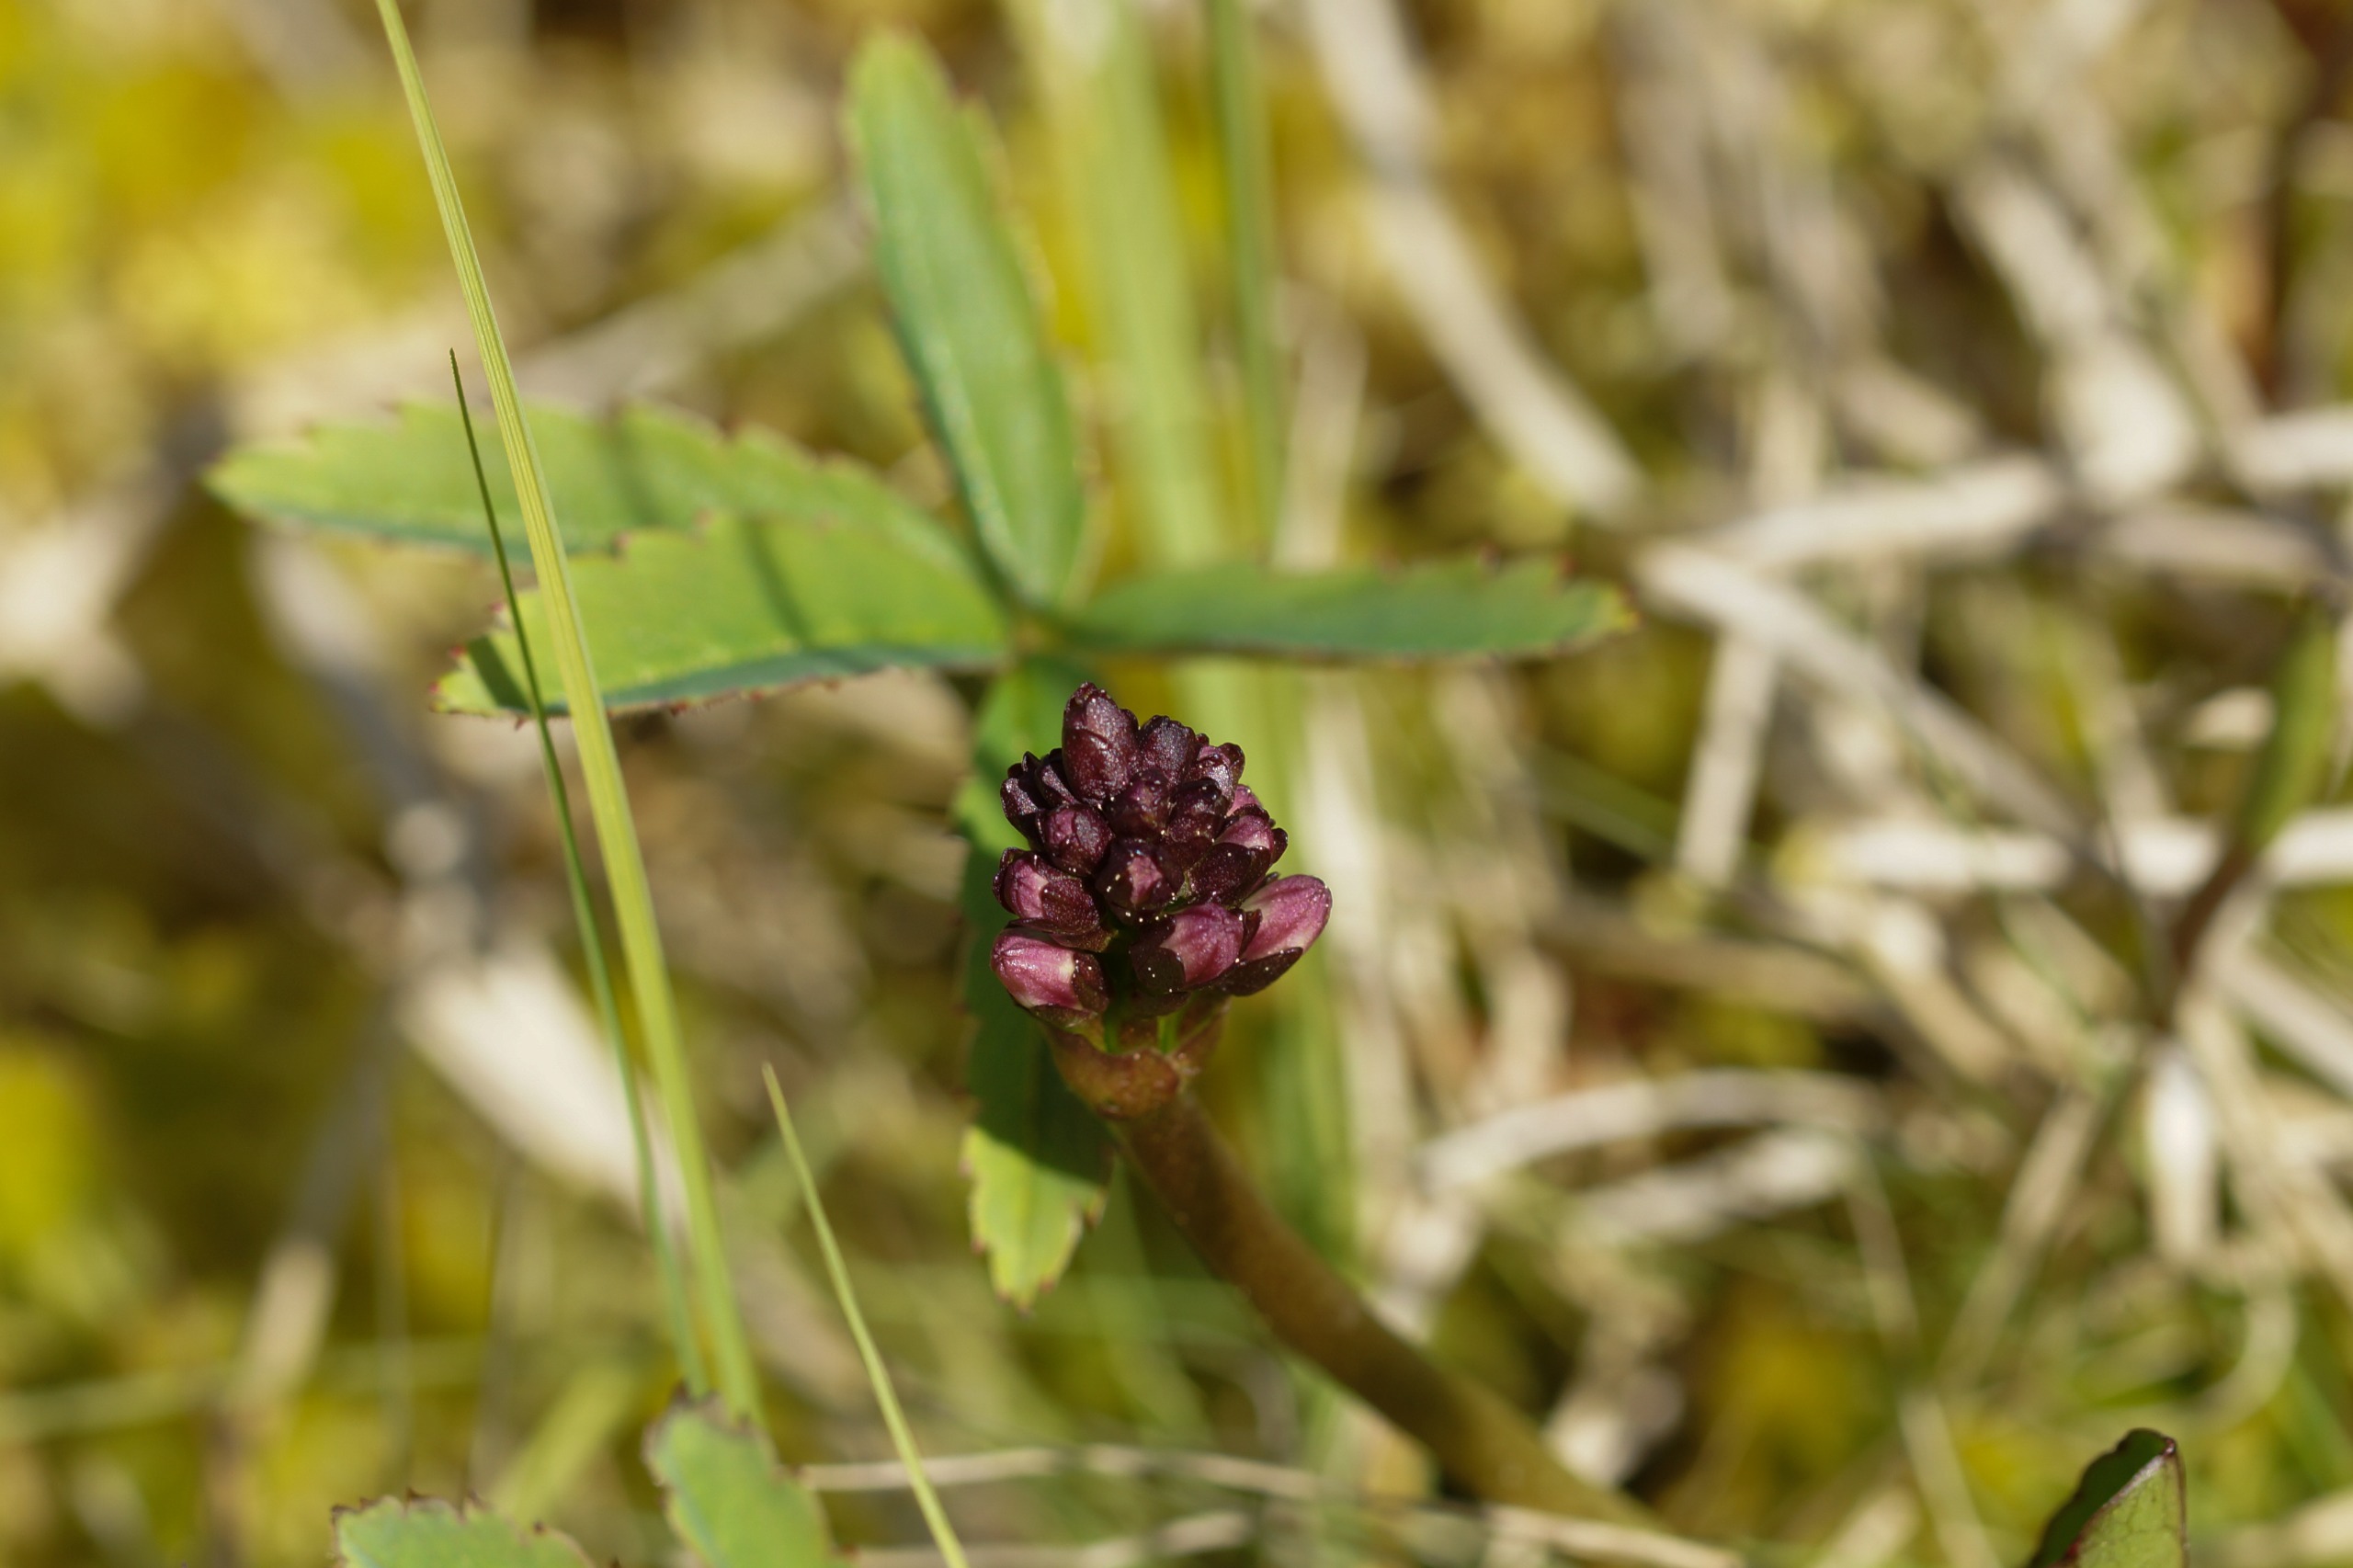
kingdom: Plantae
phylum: Tracheophyta
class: Magnoliopsida
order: Rosales
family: Rosaceae
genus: Comarum
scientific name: Comarum palustre
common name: Kragefod
